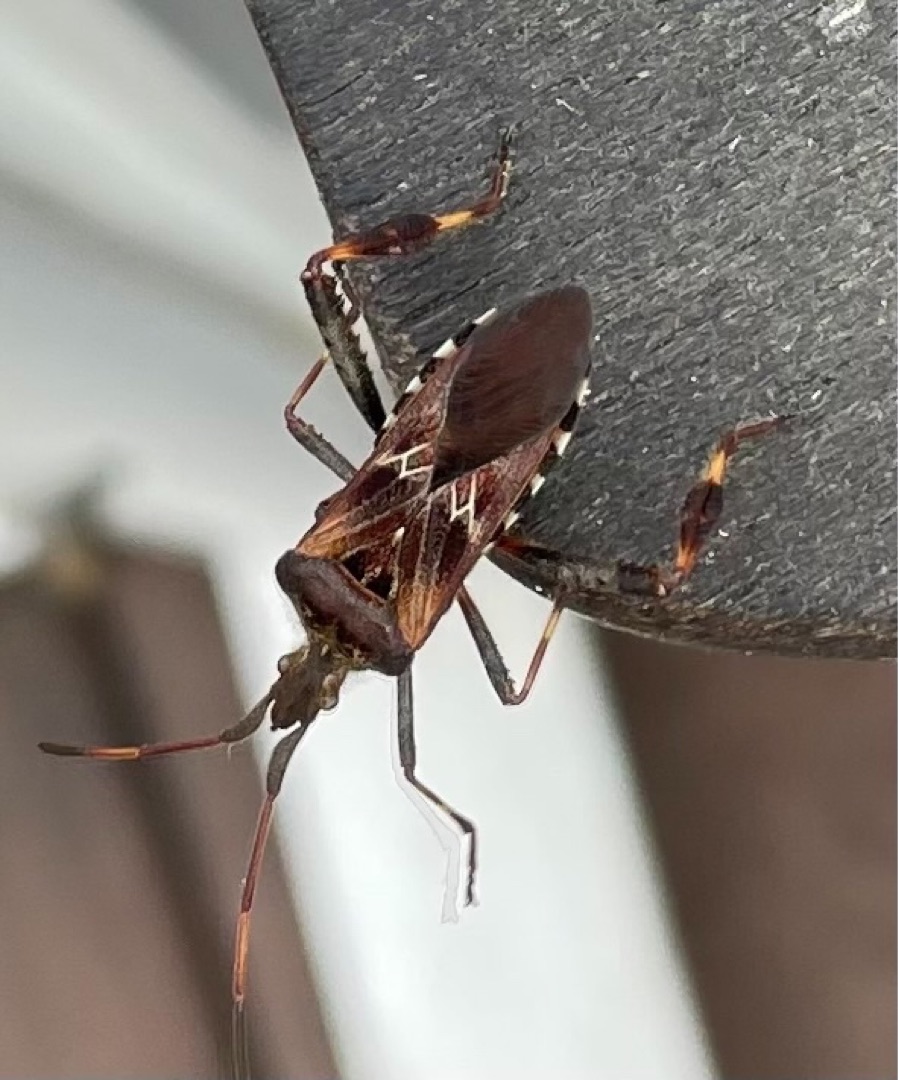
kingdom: Animalia
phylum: Arthropoda
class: Insecta
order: Hemiptera
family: Coreidae
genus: Leptoglossus
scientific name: Leptoglossus occidentalis
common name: Amerikansk fyrretæge
